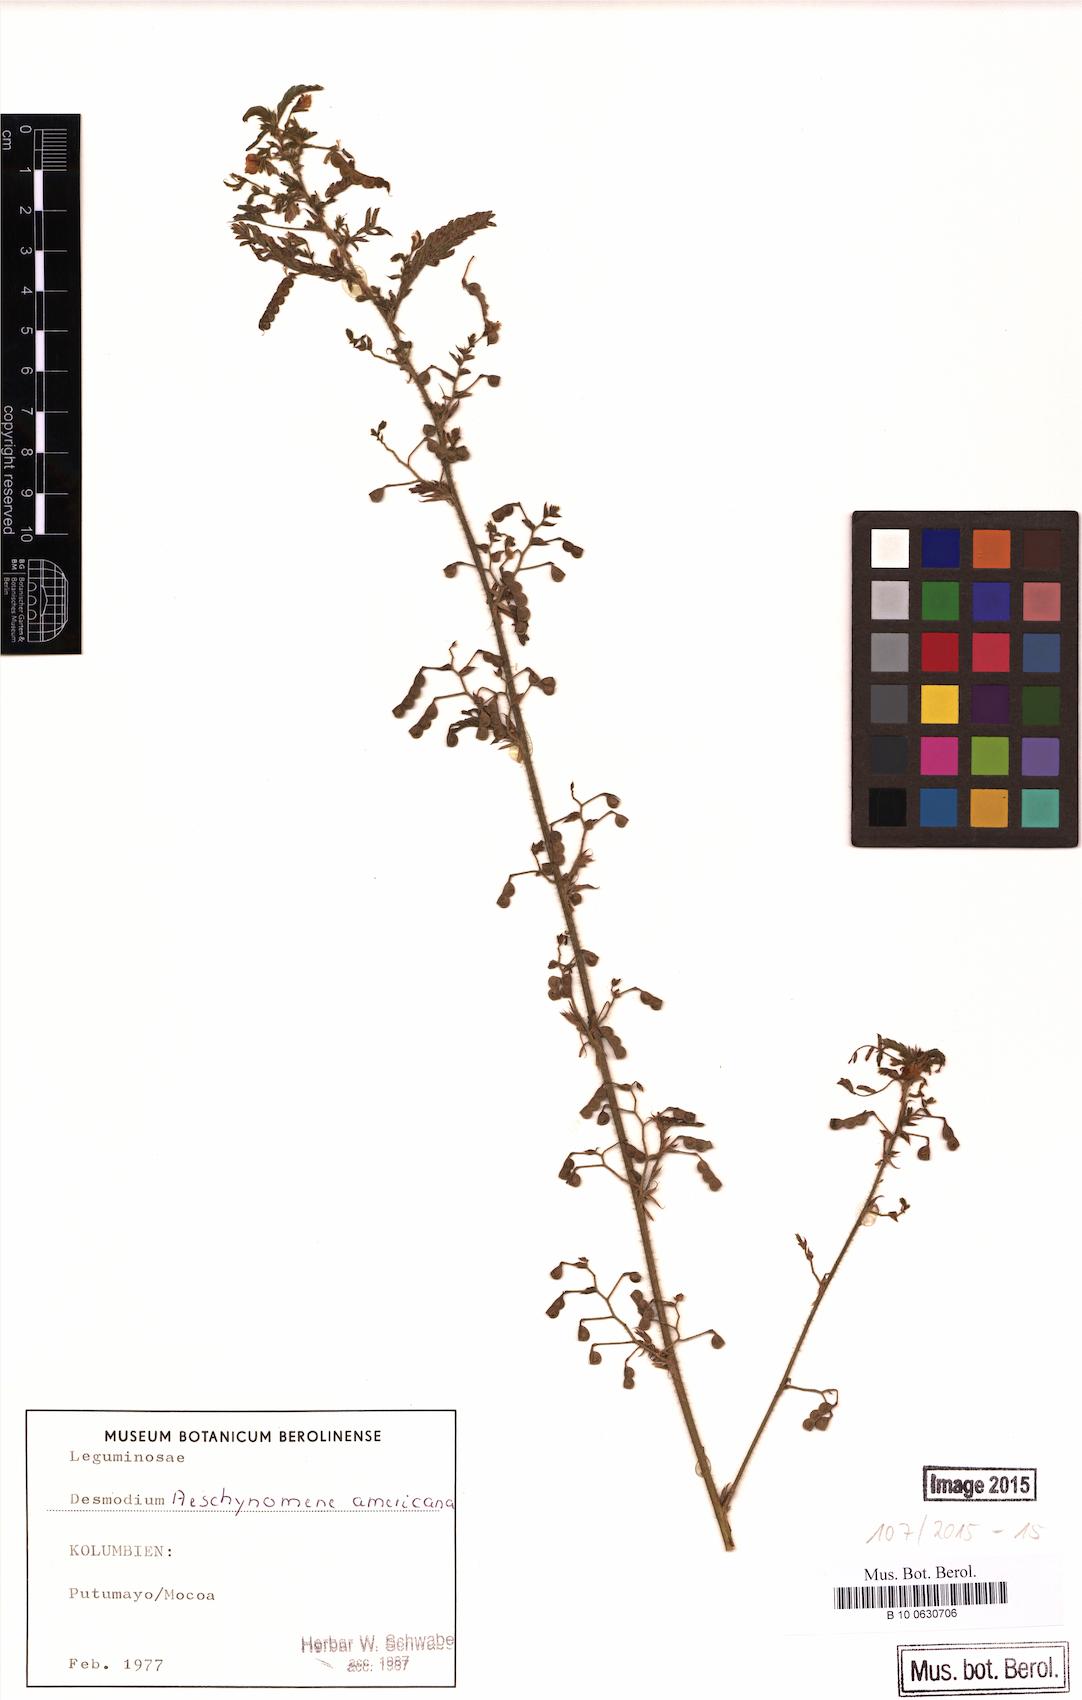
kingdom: Plantae
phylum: Tracheophyta
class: Magnoliopsida
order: Fabales
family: Fabaceae
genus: Aeschynomene
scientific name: Aeschynomene americana
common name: Joint-vetch
